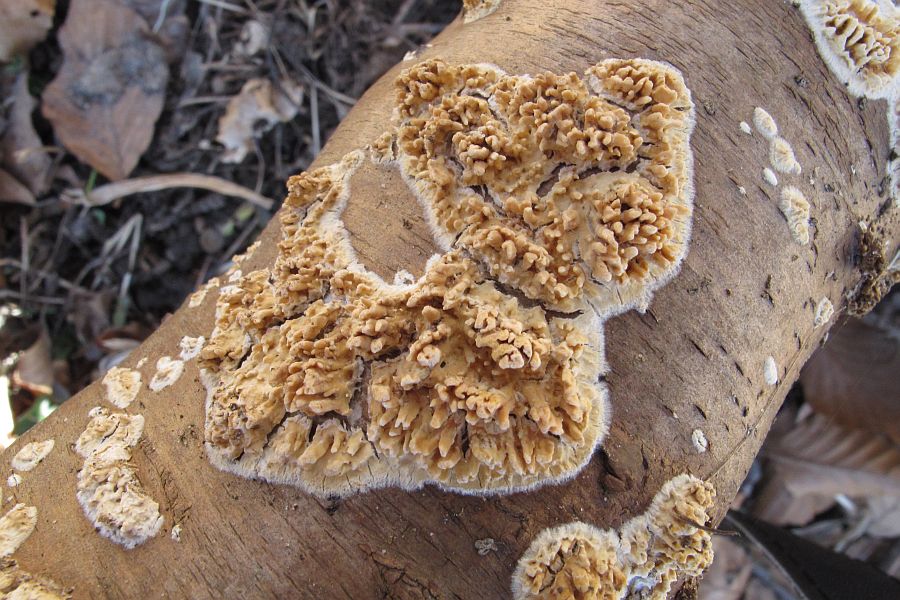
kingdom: Fungi
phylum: Basidiomycota
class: Agaricomycetes
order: Hymenochaetales
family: Schizoporaceae
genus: Xylodon
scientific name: Xylodon radula
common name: grovtandet kalkskind
